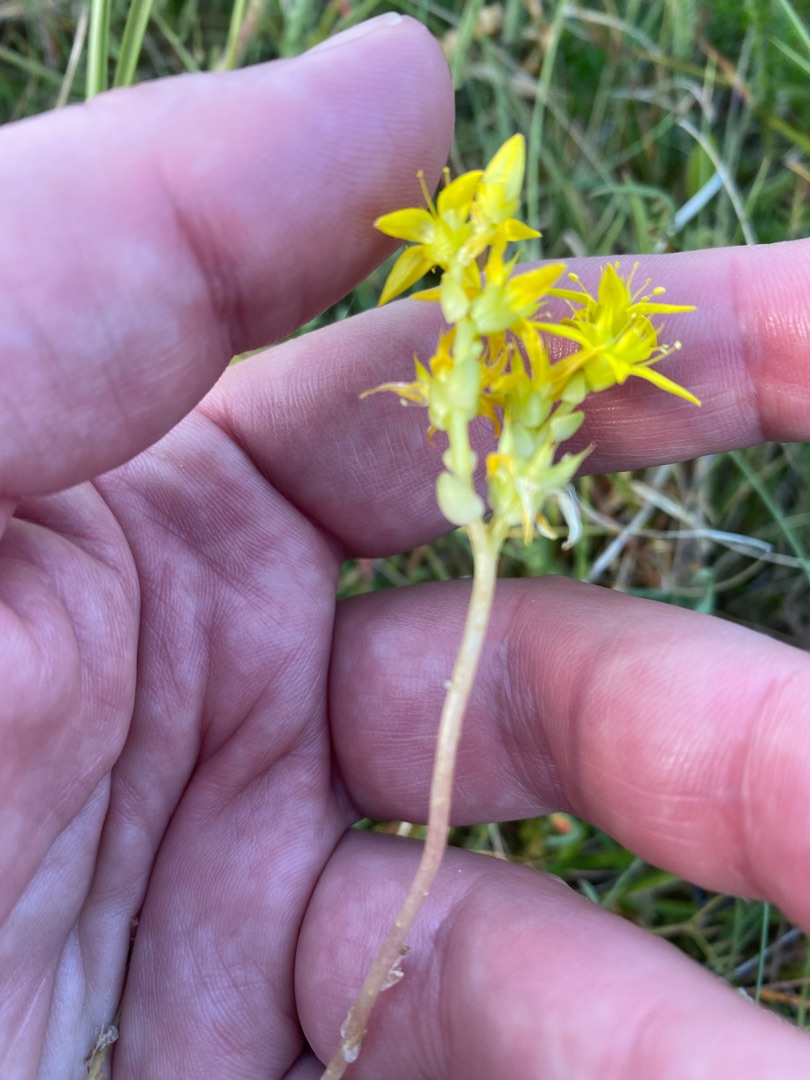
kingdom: Plantae
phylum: Tracheophyta
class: Magnoliopsida
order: Saxifragales
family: Crassulaceae
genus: Sedum
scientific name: Sedum acre
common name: Bidende stenurt
